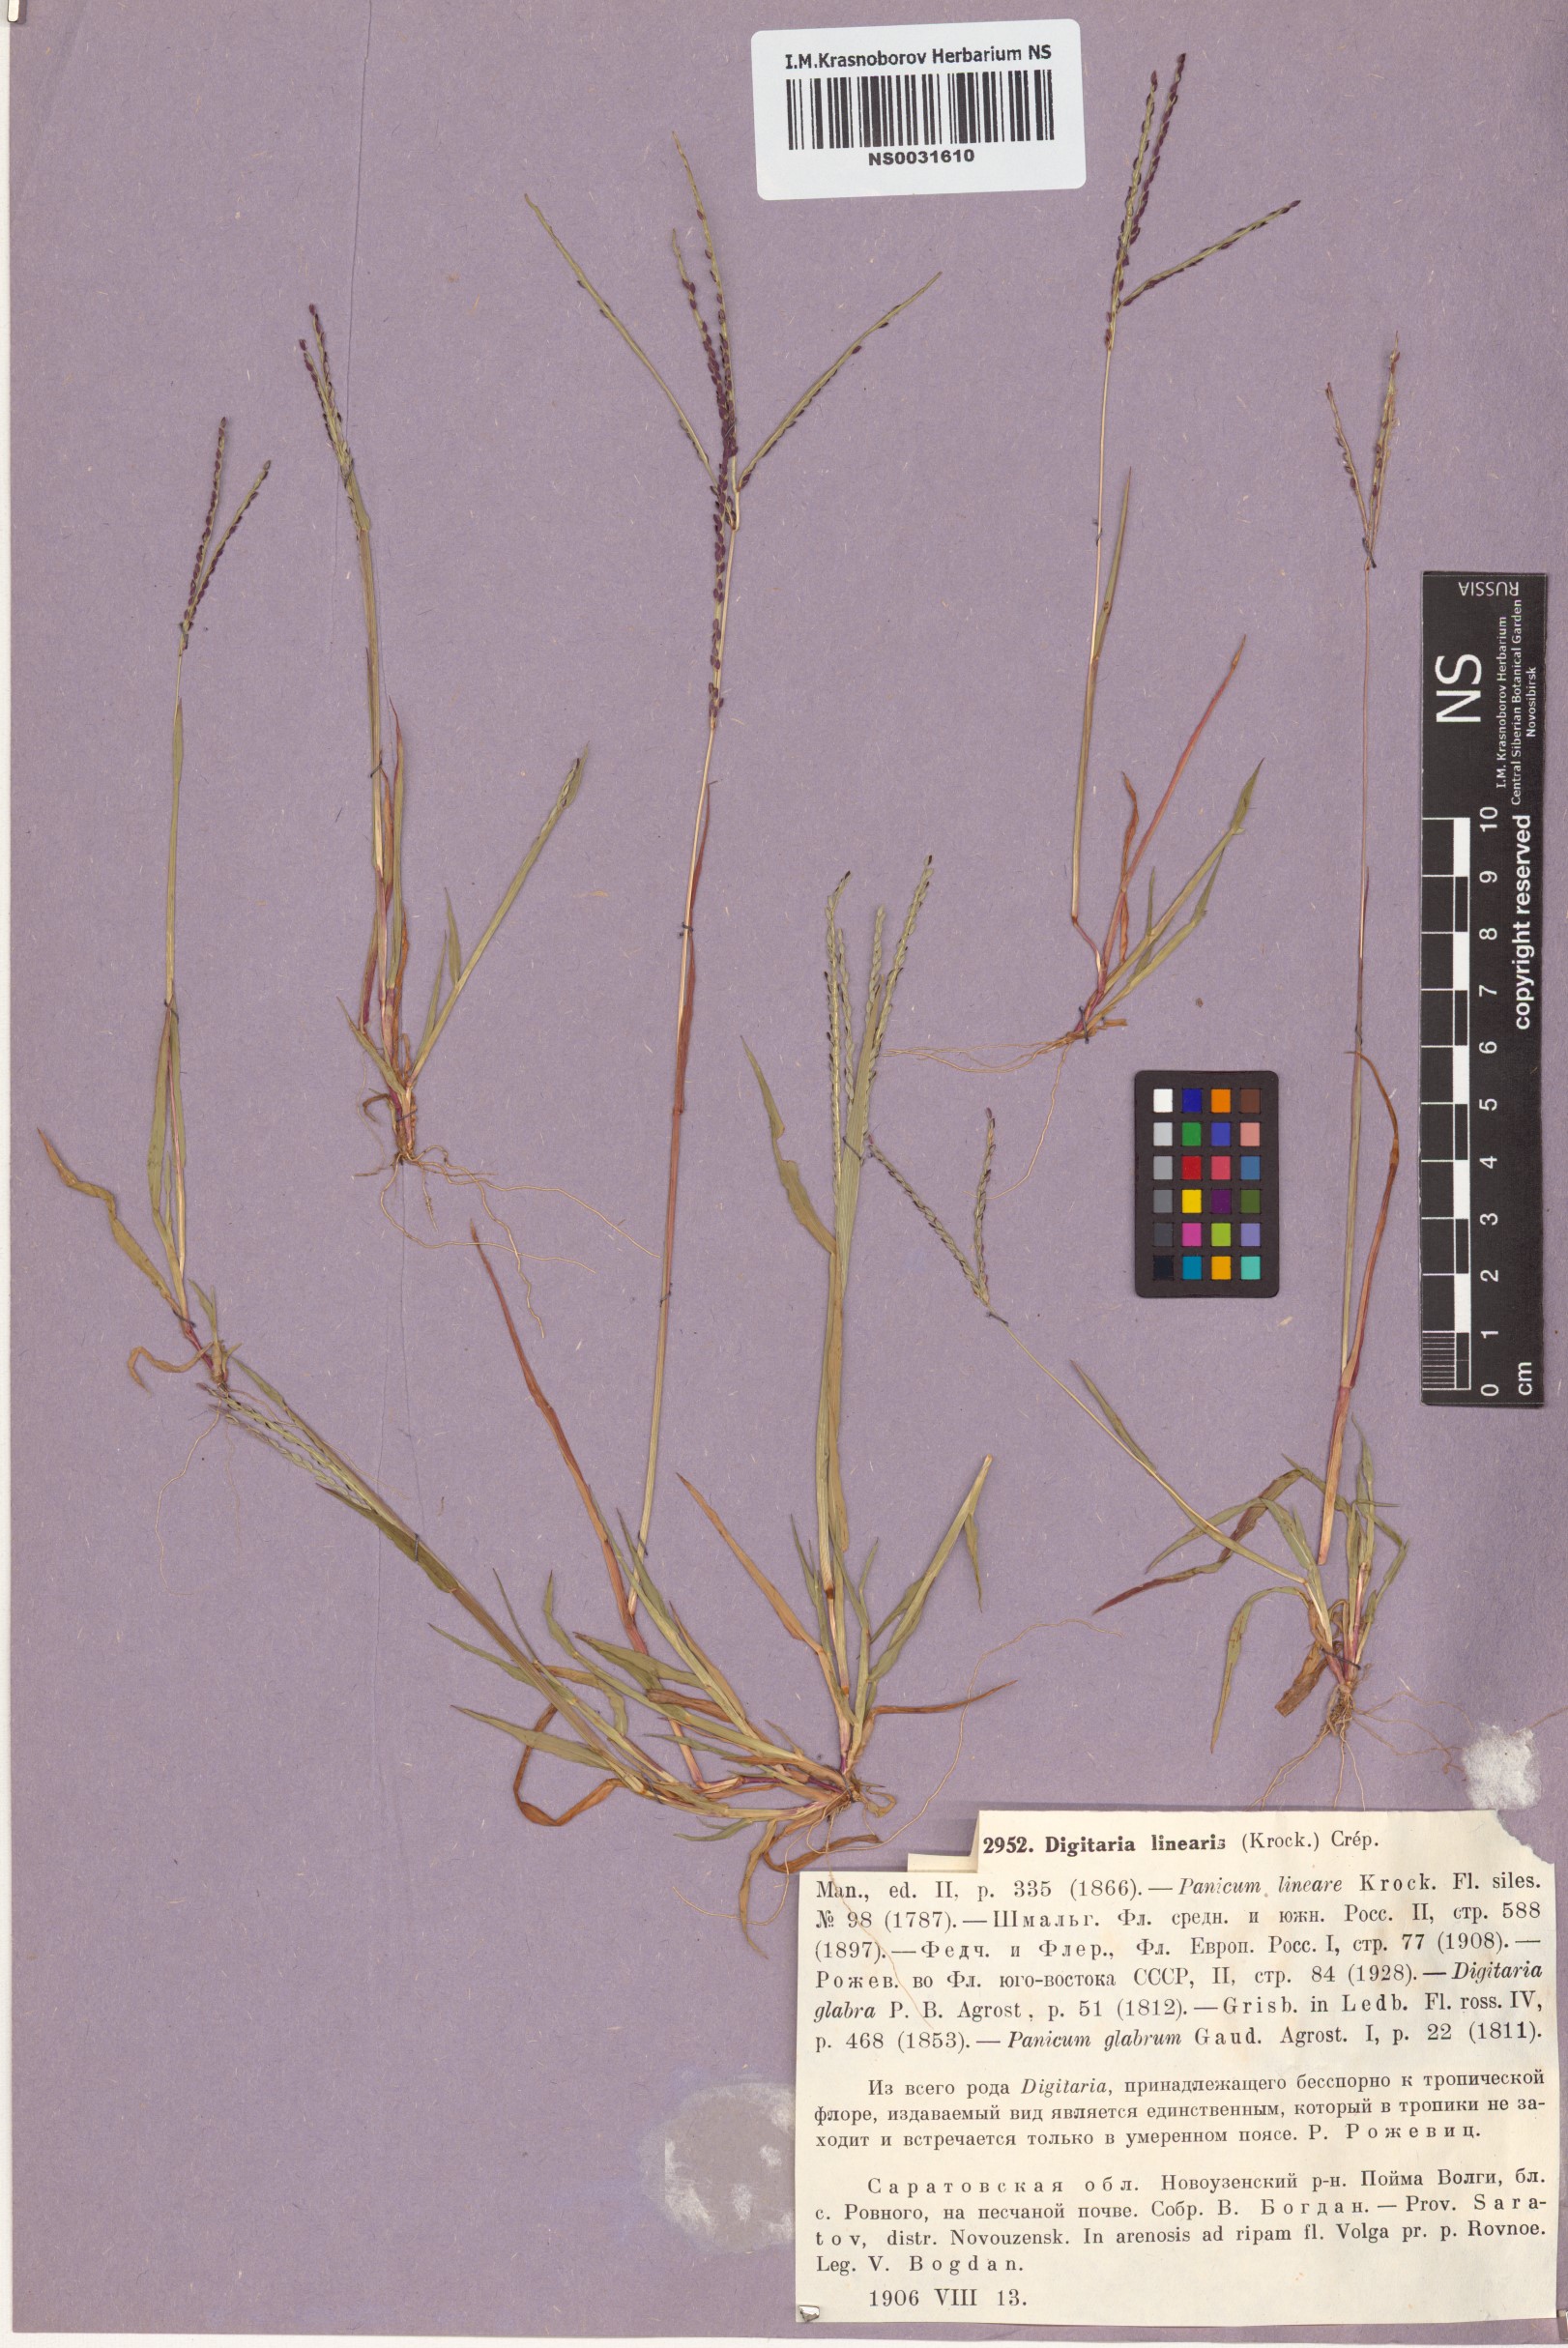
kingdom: Plantae
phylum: Tracheophyta
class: Liliopsida
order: Poales
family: Poaceae
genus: Digitaria
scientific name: Digitaria ischaemum
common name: Smooth crabgrass
